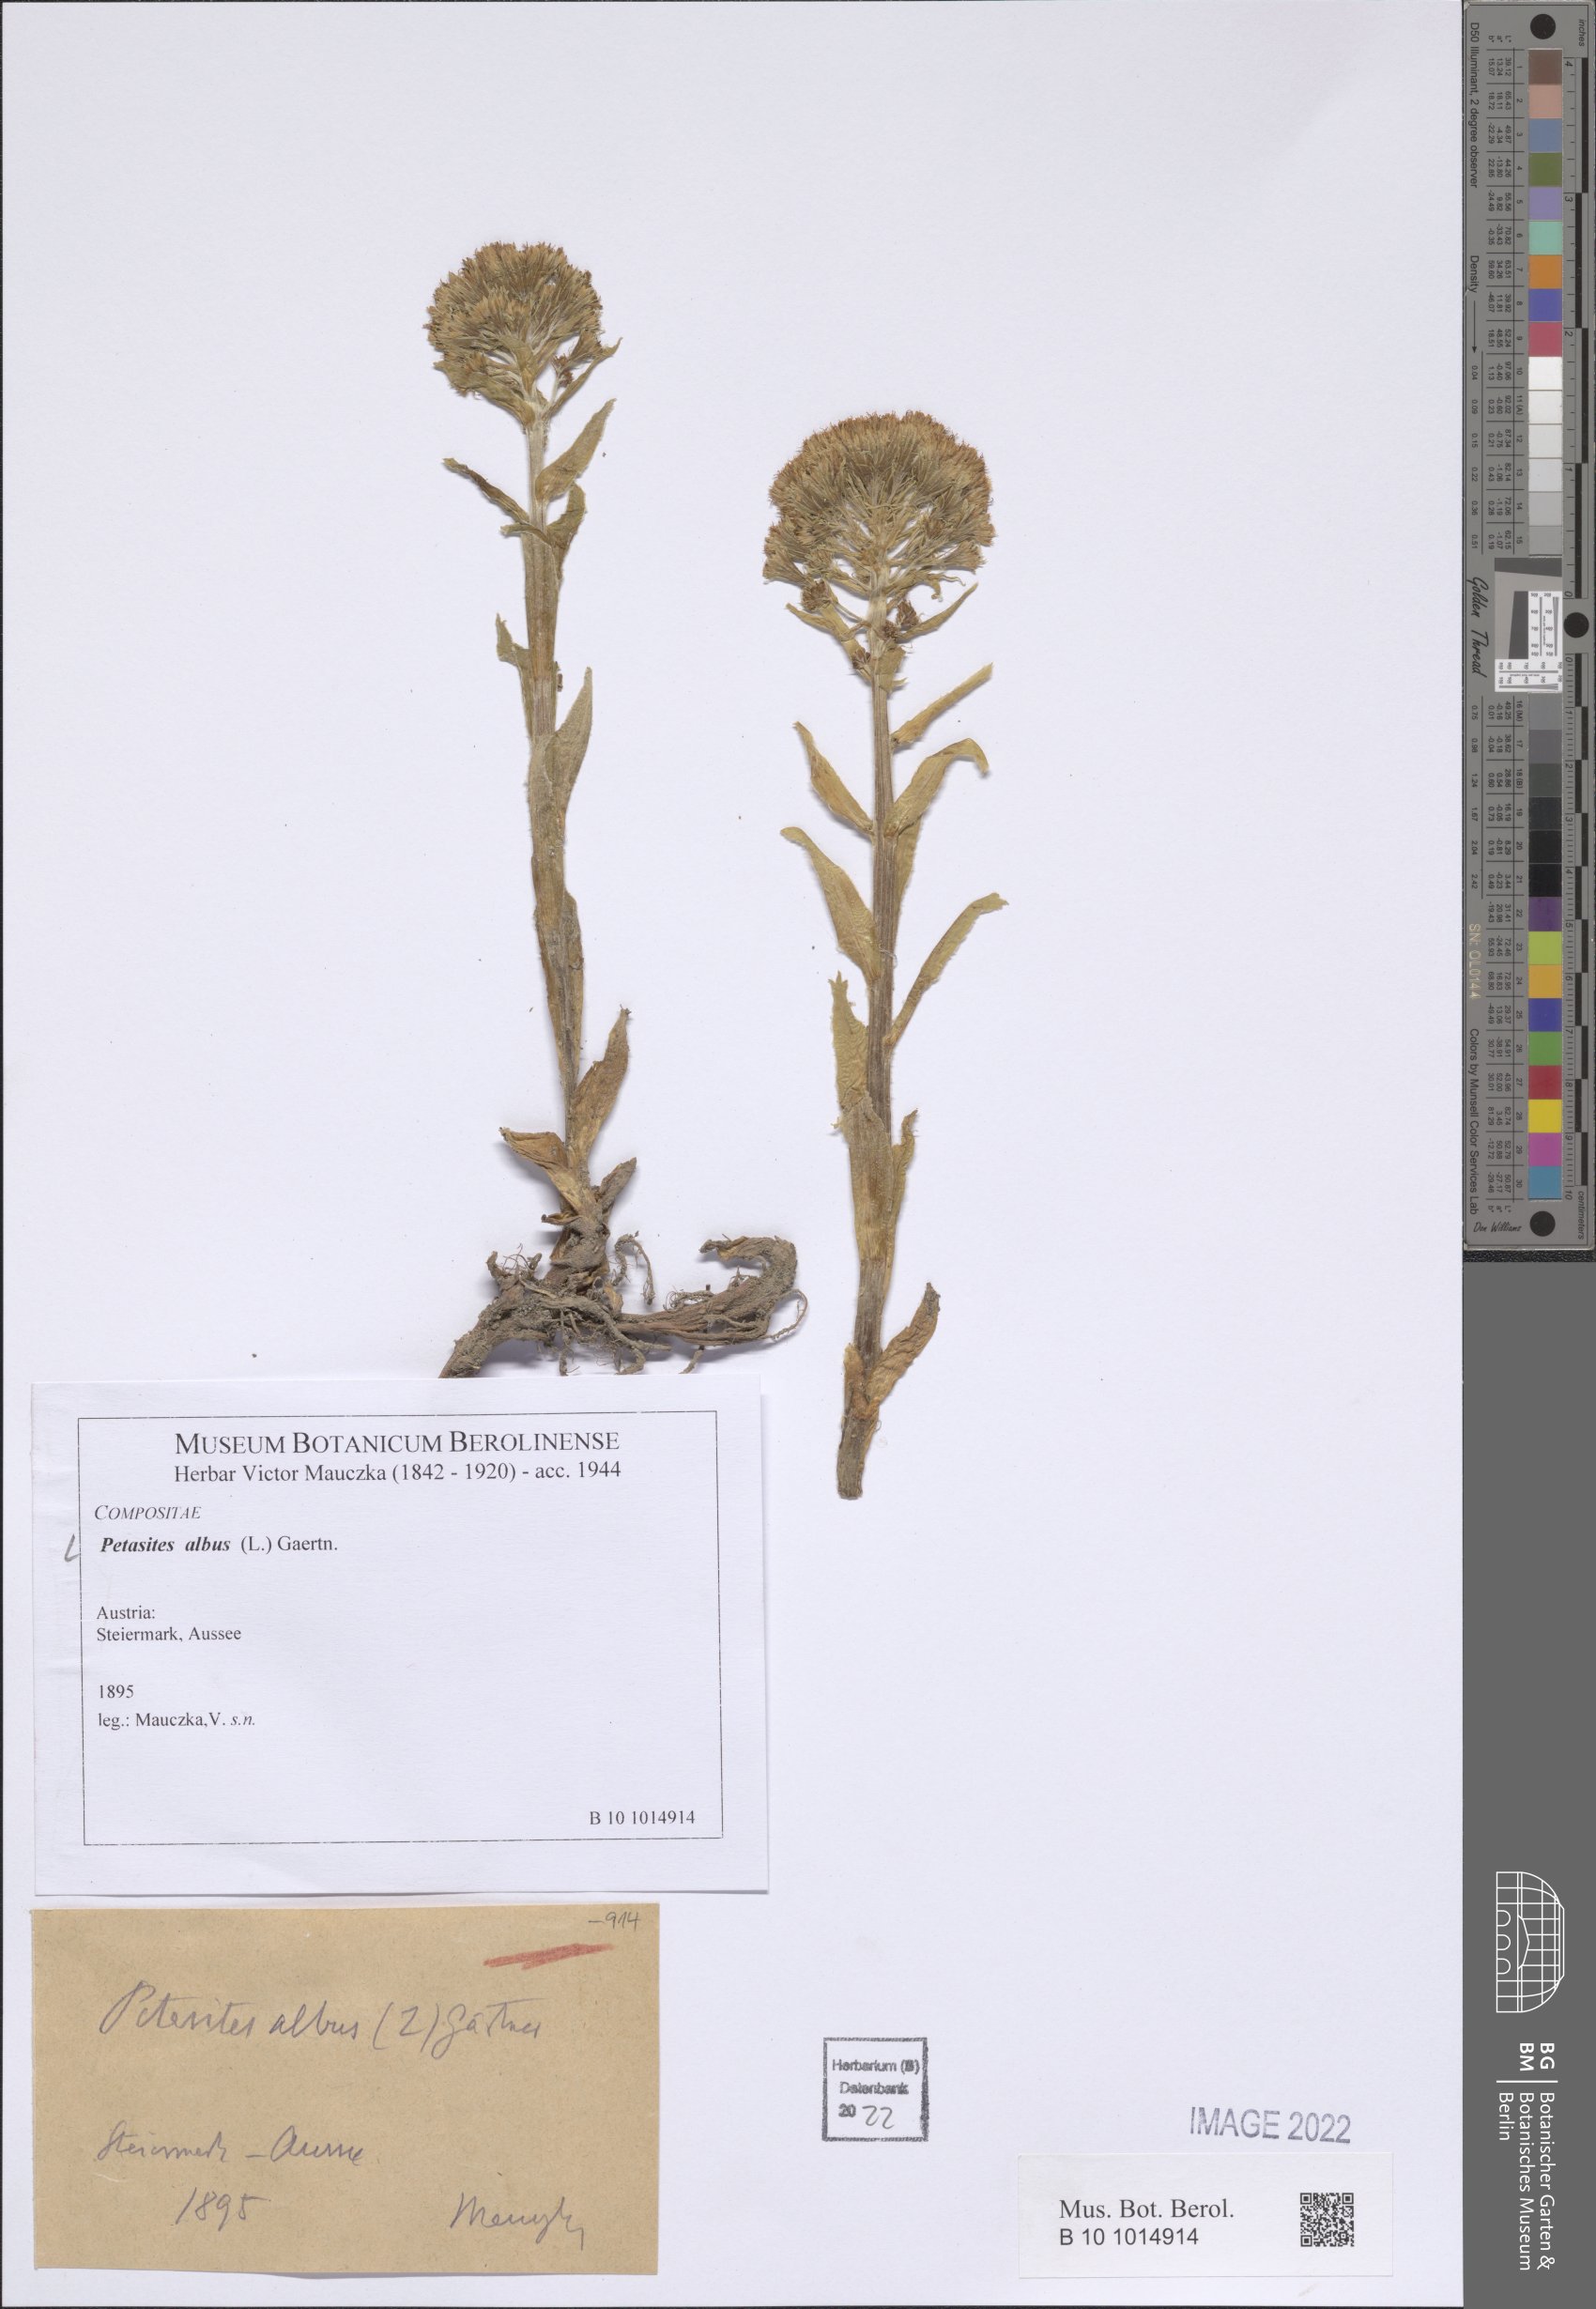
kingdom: Plantae
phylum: Tracheophyta
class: Magnoliopsida
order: Asterales
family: Asteraceae
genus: Petasites
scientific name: Petasites albus
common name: White butterbur
